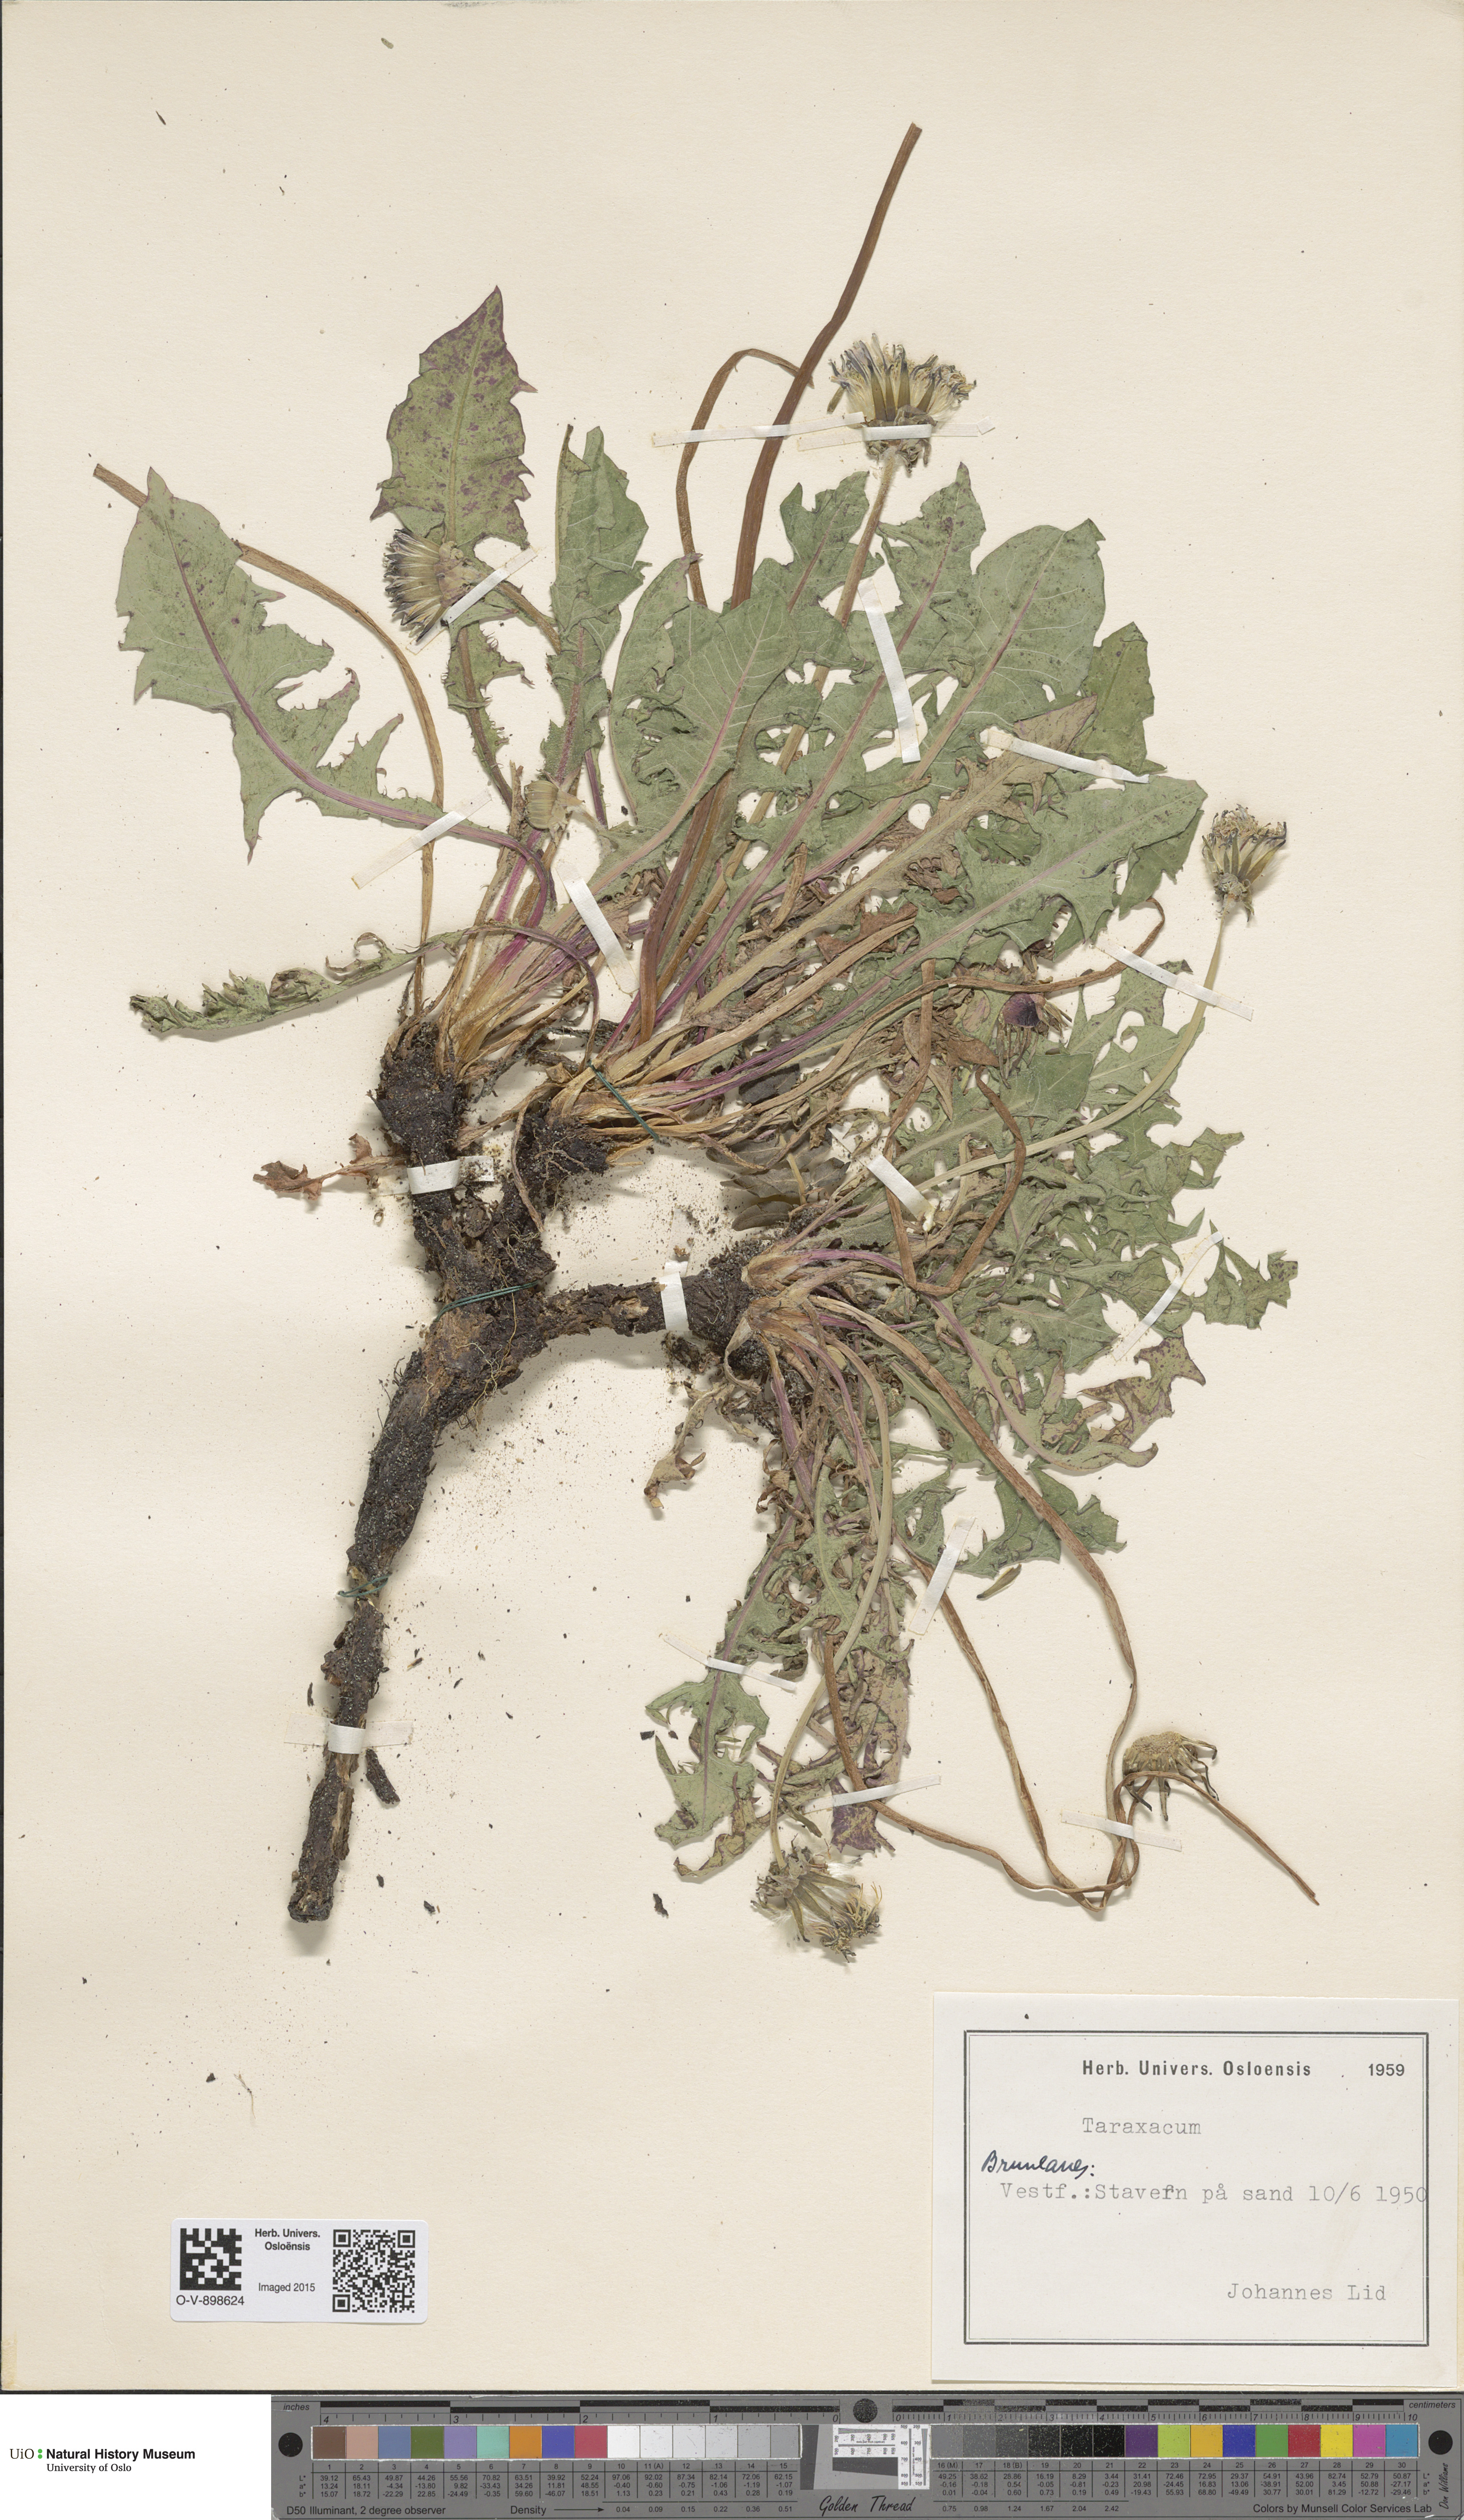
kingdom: Plantae
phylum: Tracheophyta
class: Magnoliopsida
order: Asterales
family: Asteraceae
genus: Taraxacum
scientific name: Taraxacum
